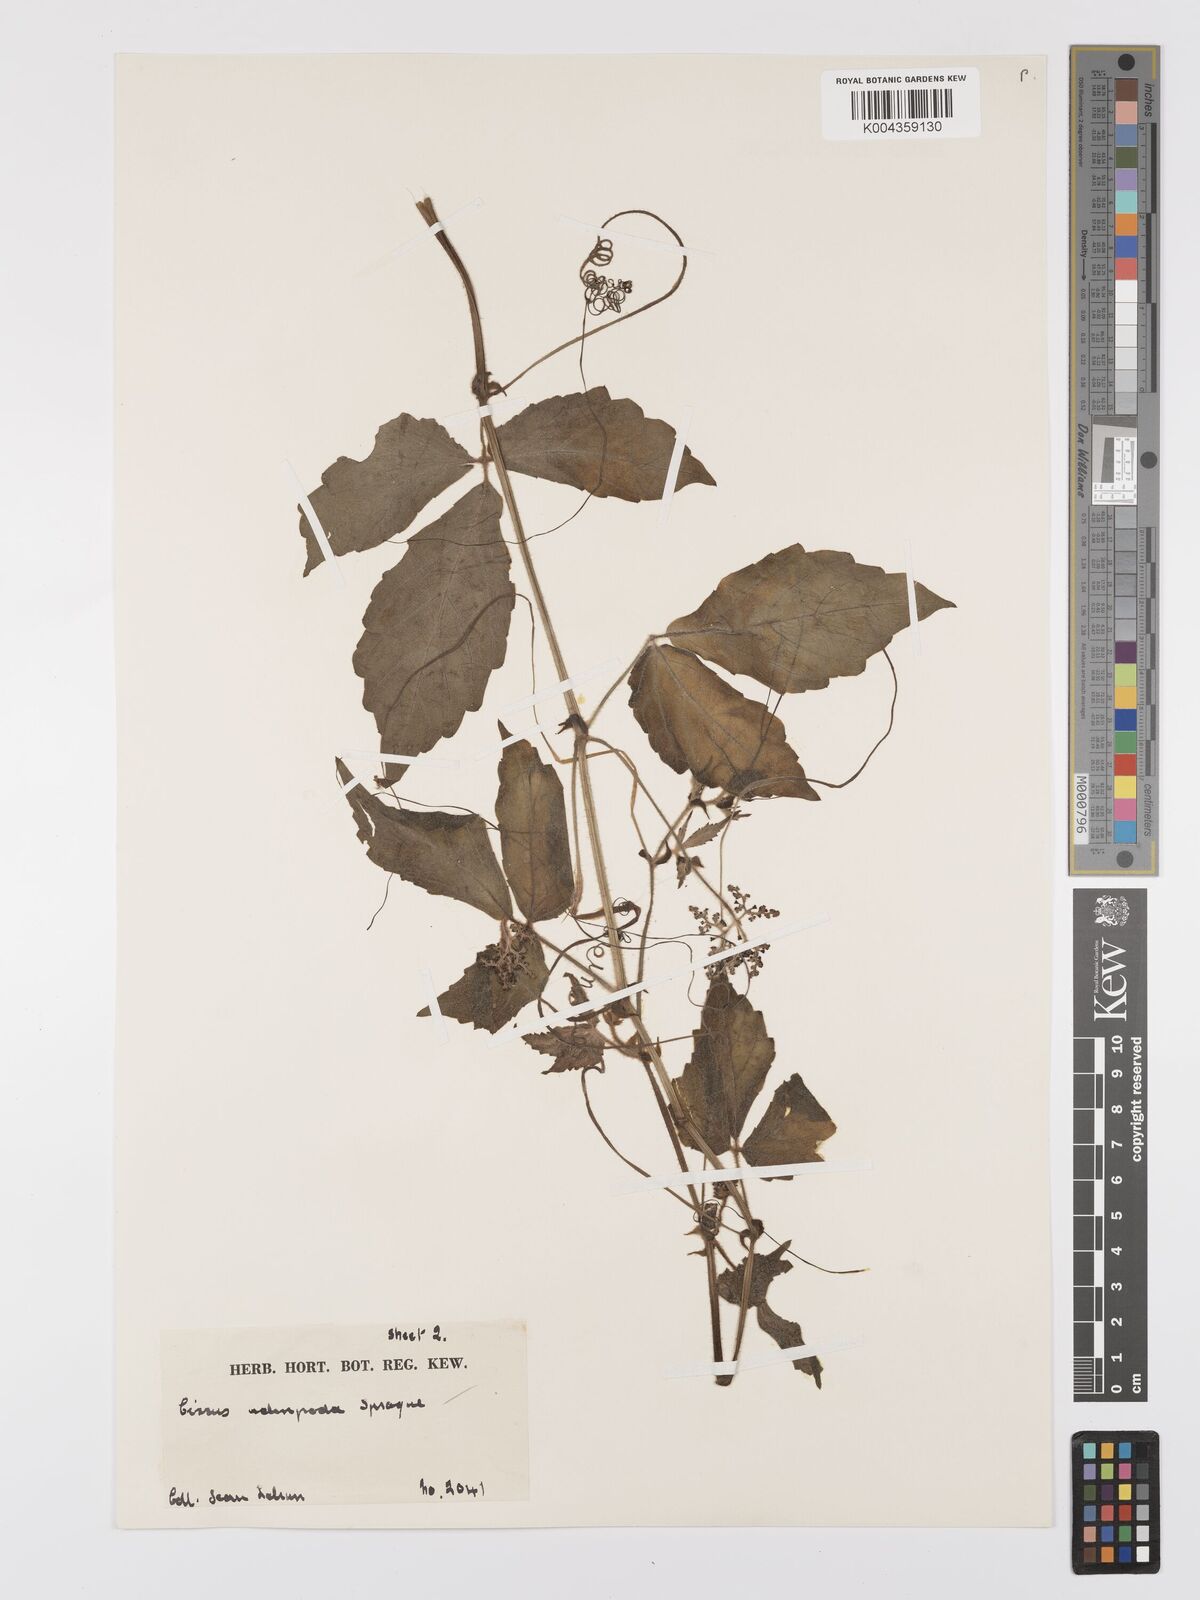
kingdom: Plantae
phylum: Tracheophyta
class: Magnoliopsida
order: Vitales
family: Vitaceae
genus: Cyphostemma
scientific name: Cyphostemma adenopodum
